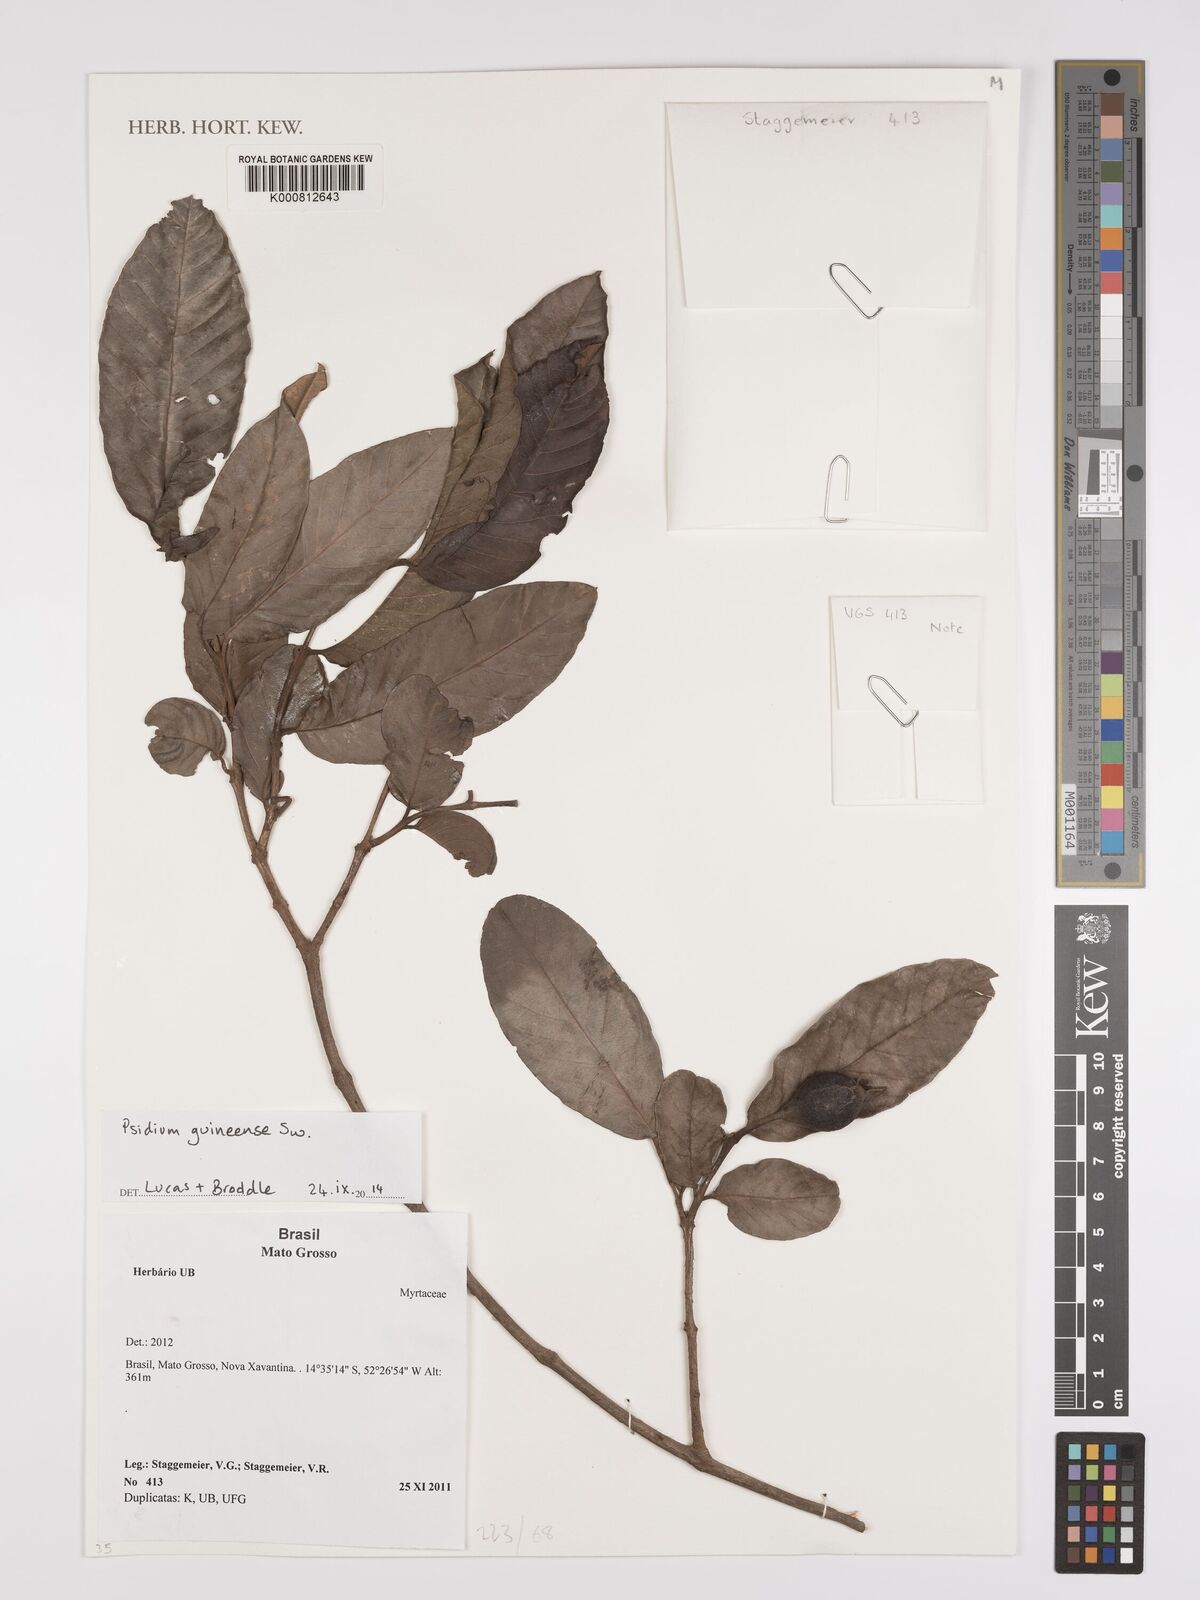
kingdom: Plantae
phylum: Tracheophyta
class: Magnoliopsida
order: Myrtales
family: Myrtaceae
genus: Psidium
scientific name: Psidium guineense
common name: Brazilian guava
